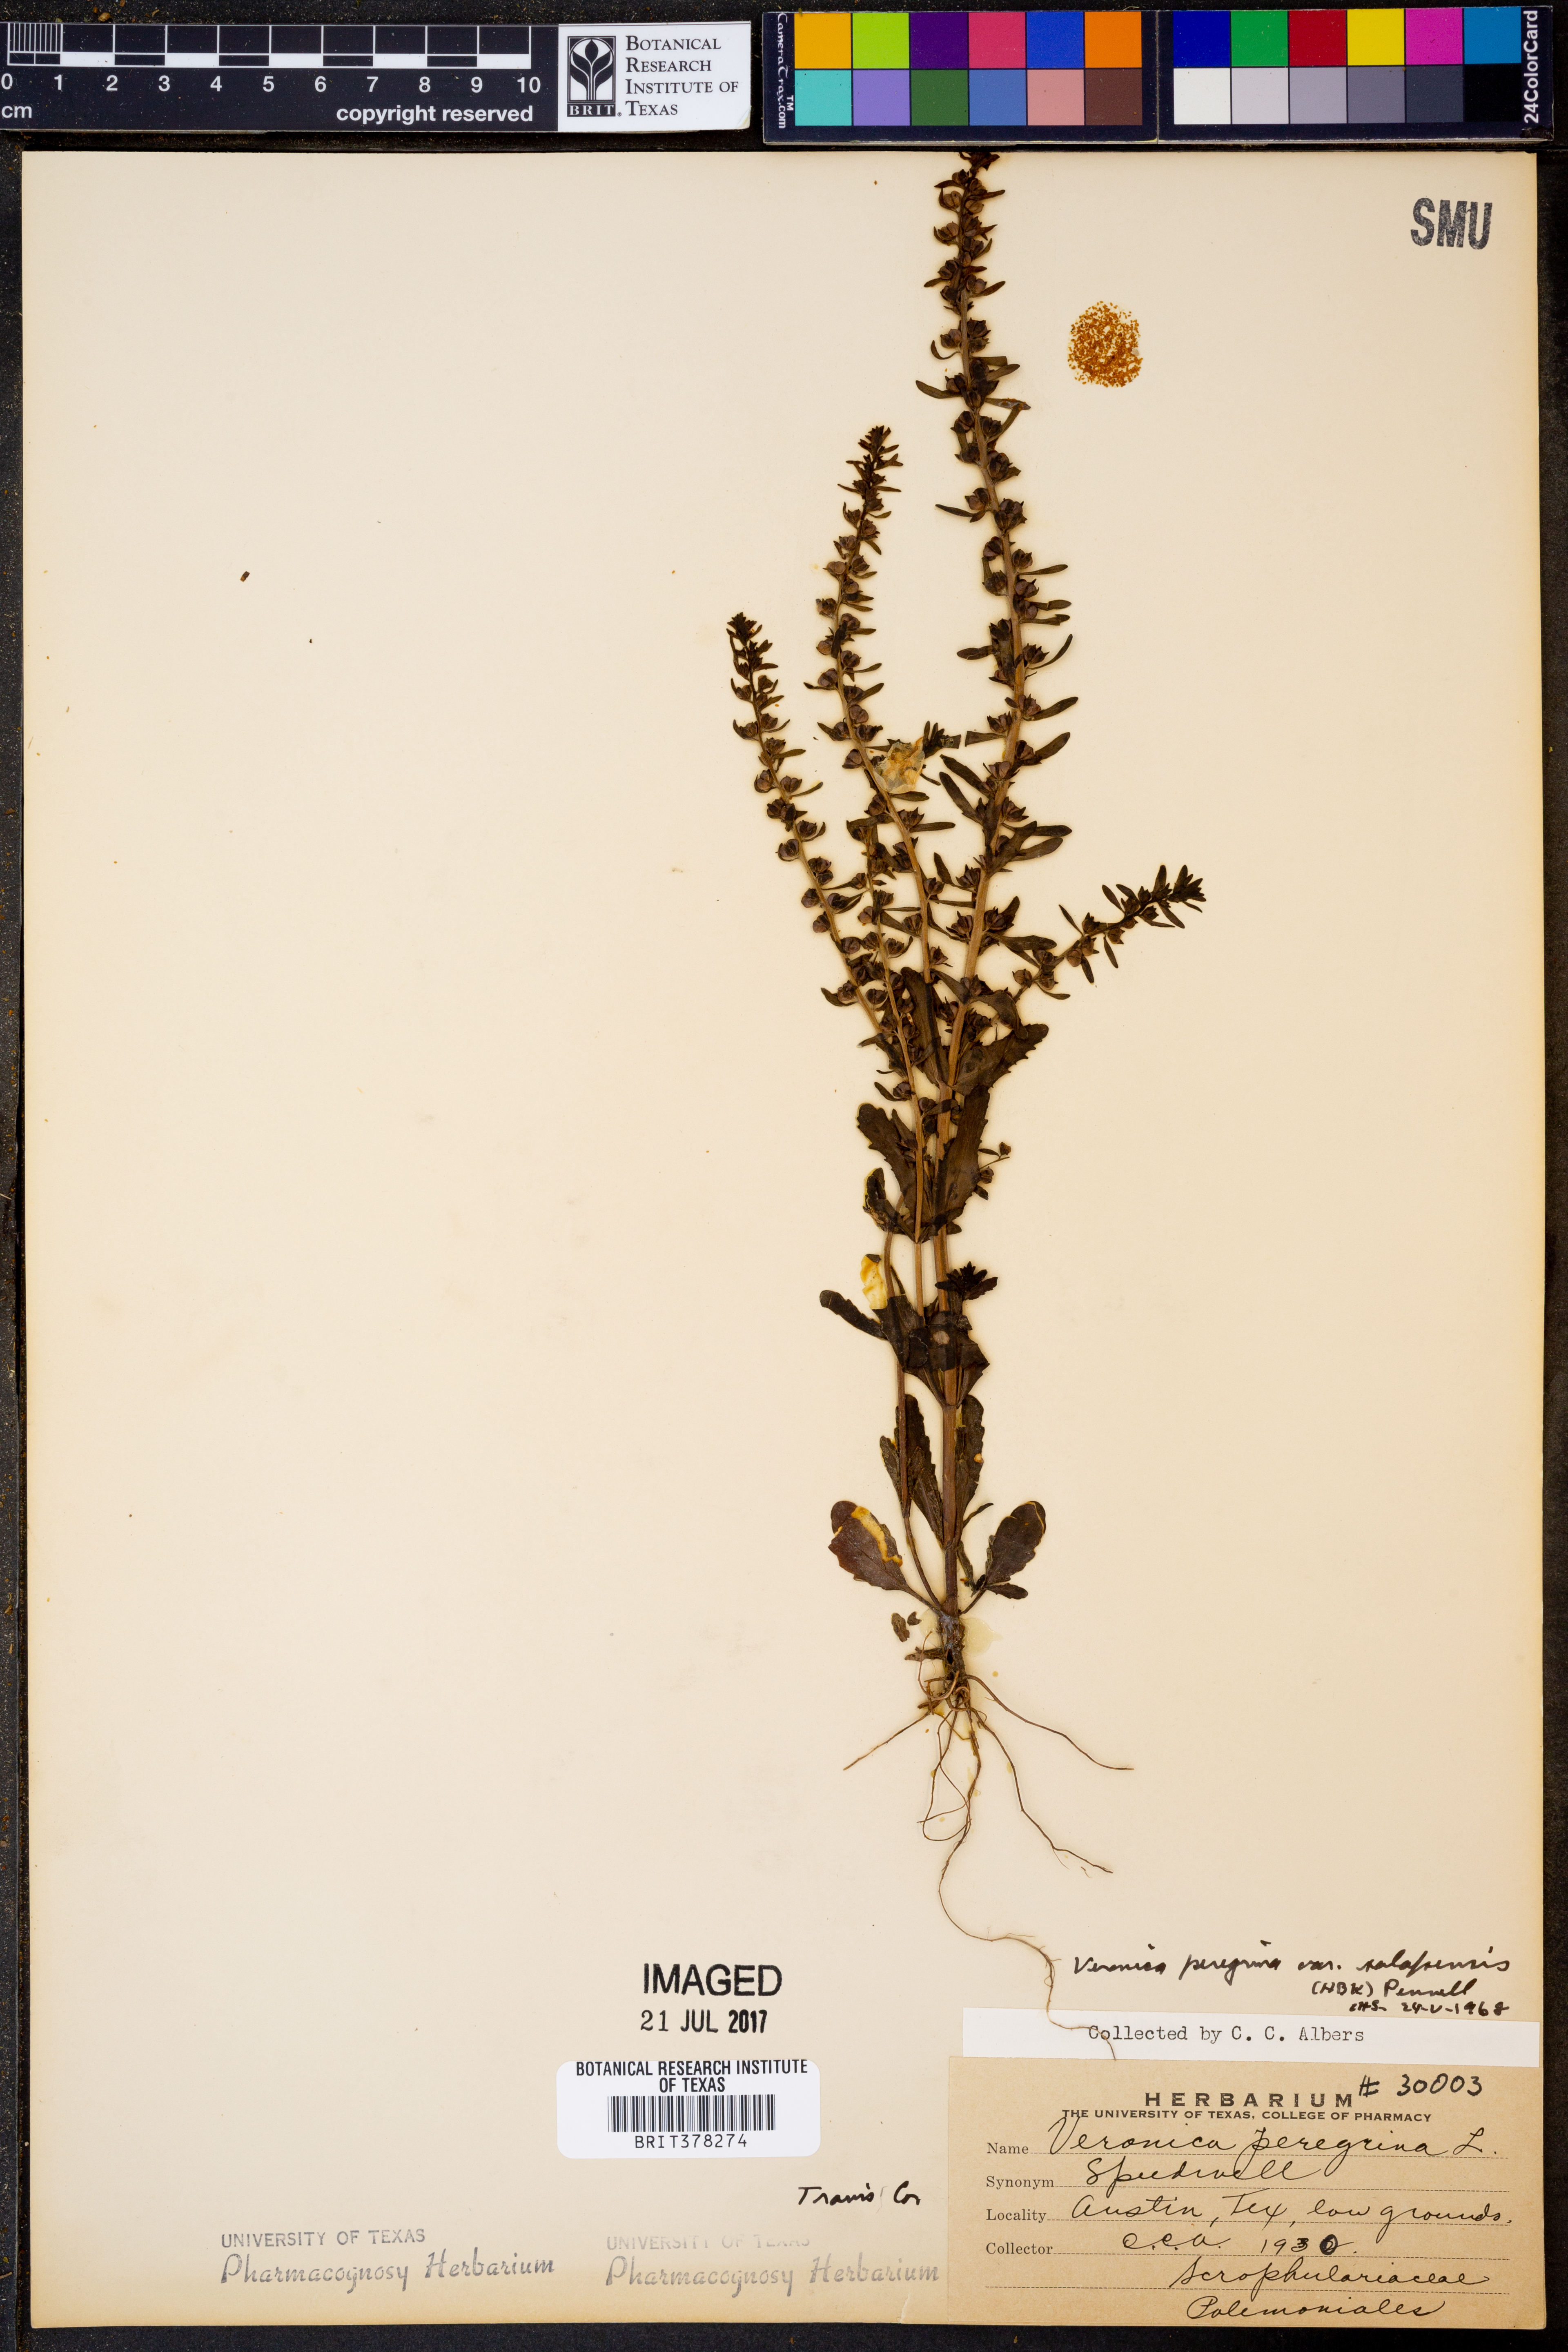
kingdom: Plantae
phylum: Tracheophyta
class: Magnoliopsida
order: Lamiales
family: Plantaginaceae
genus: Veronica
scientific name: Veronica peregrina
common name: Neckweed
